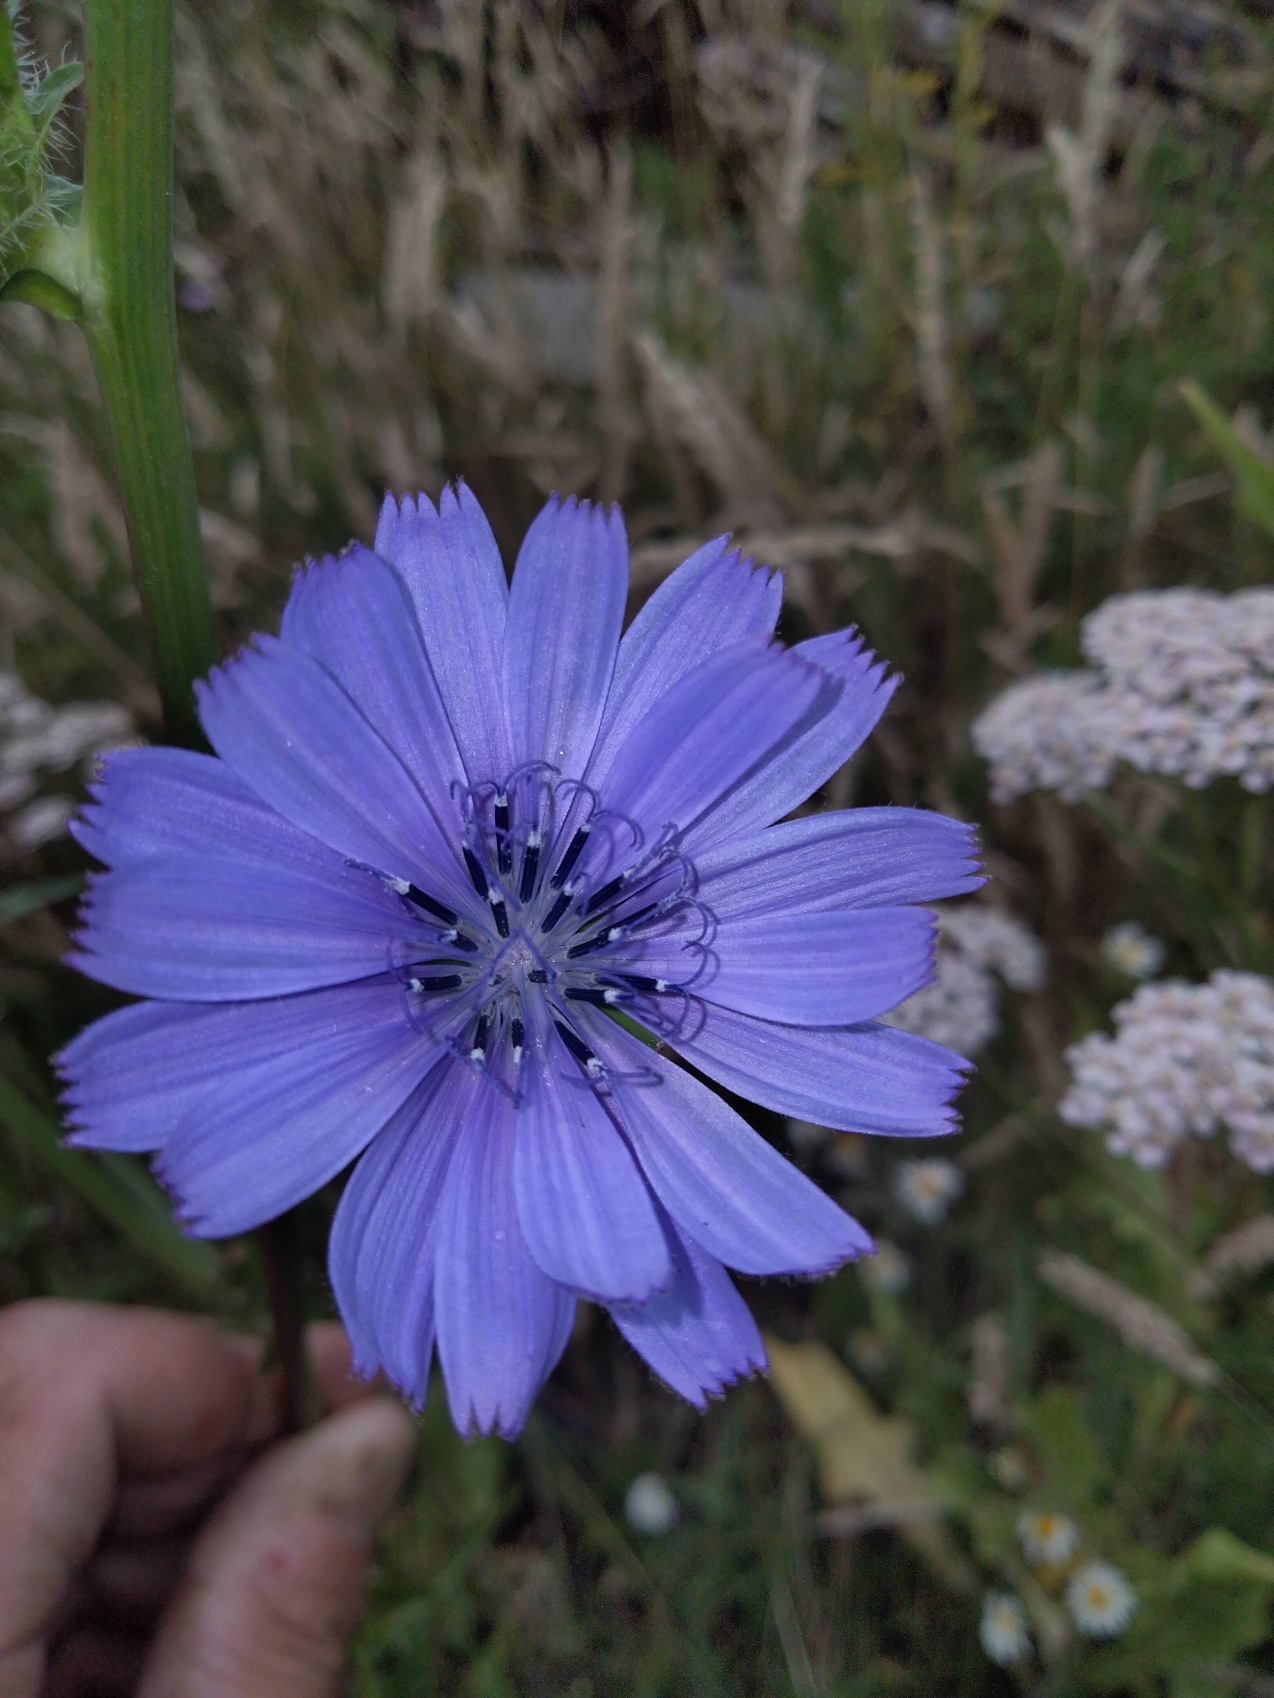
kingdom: Plantae
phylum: Tracheophyta
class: Magnoliopsida
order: Asterales
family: Asteraceae
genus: Cichorium
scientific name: Cichorium intybus
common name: Cikorie
